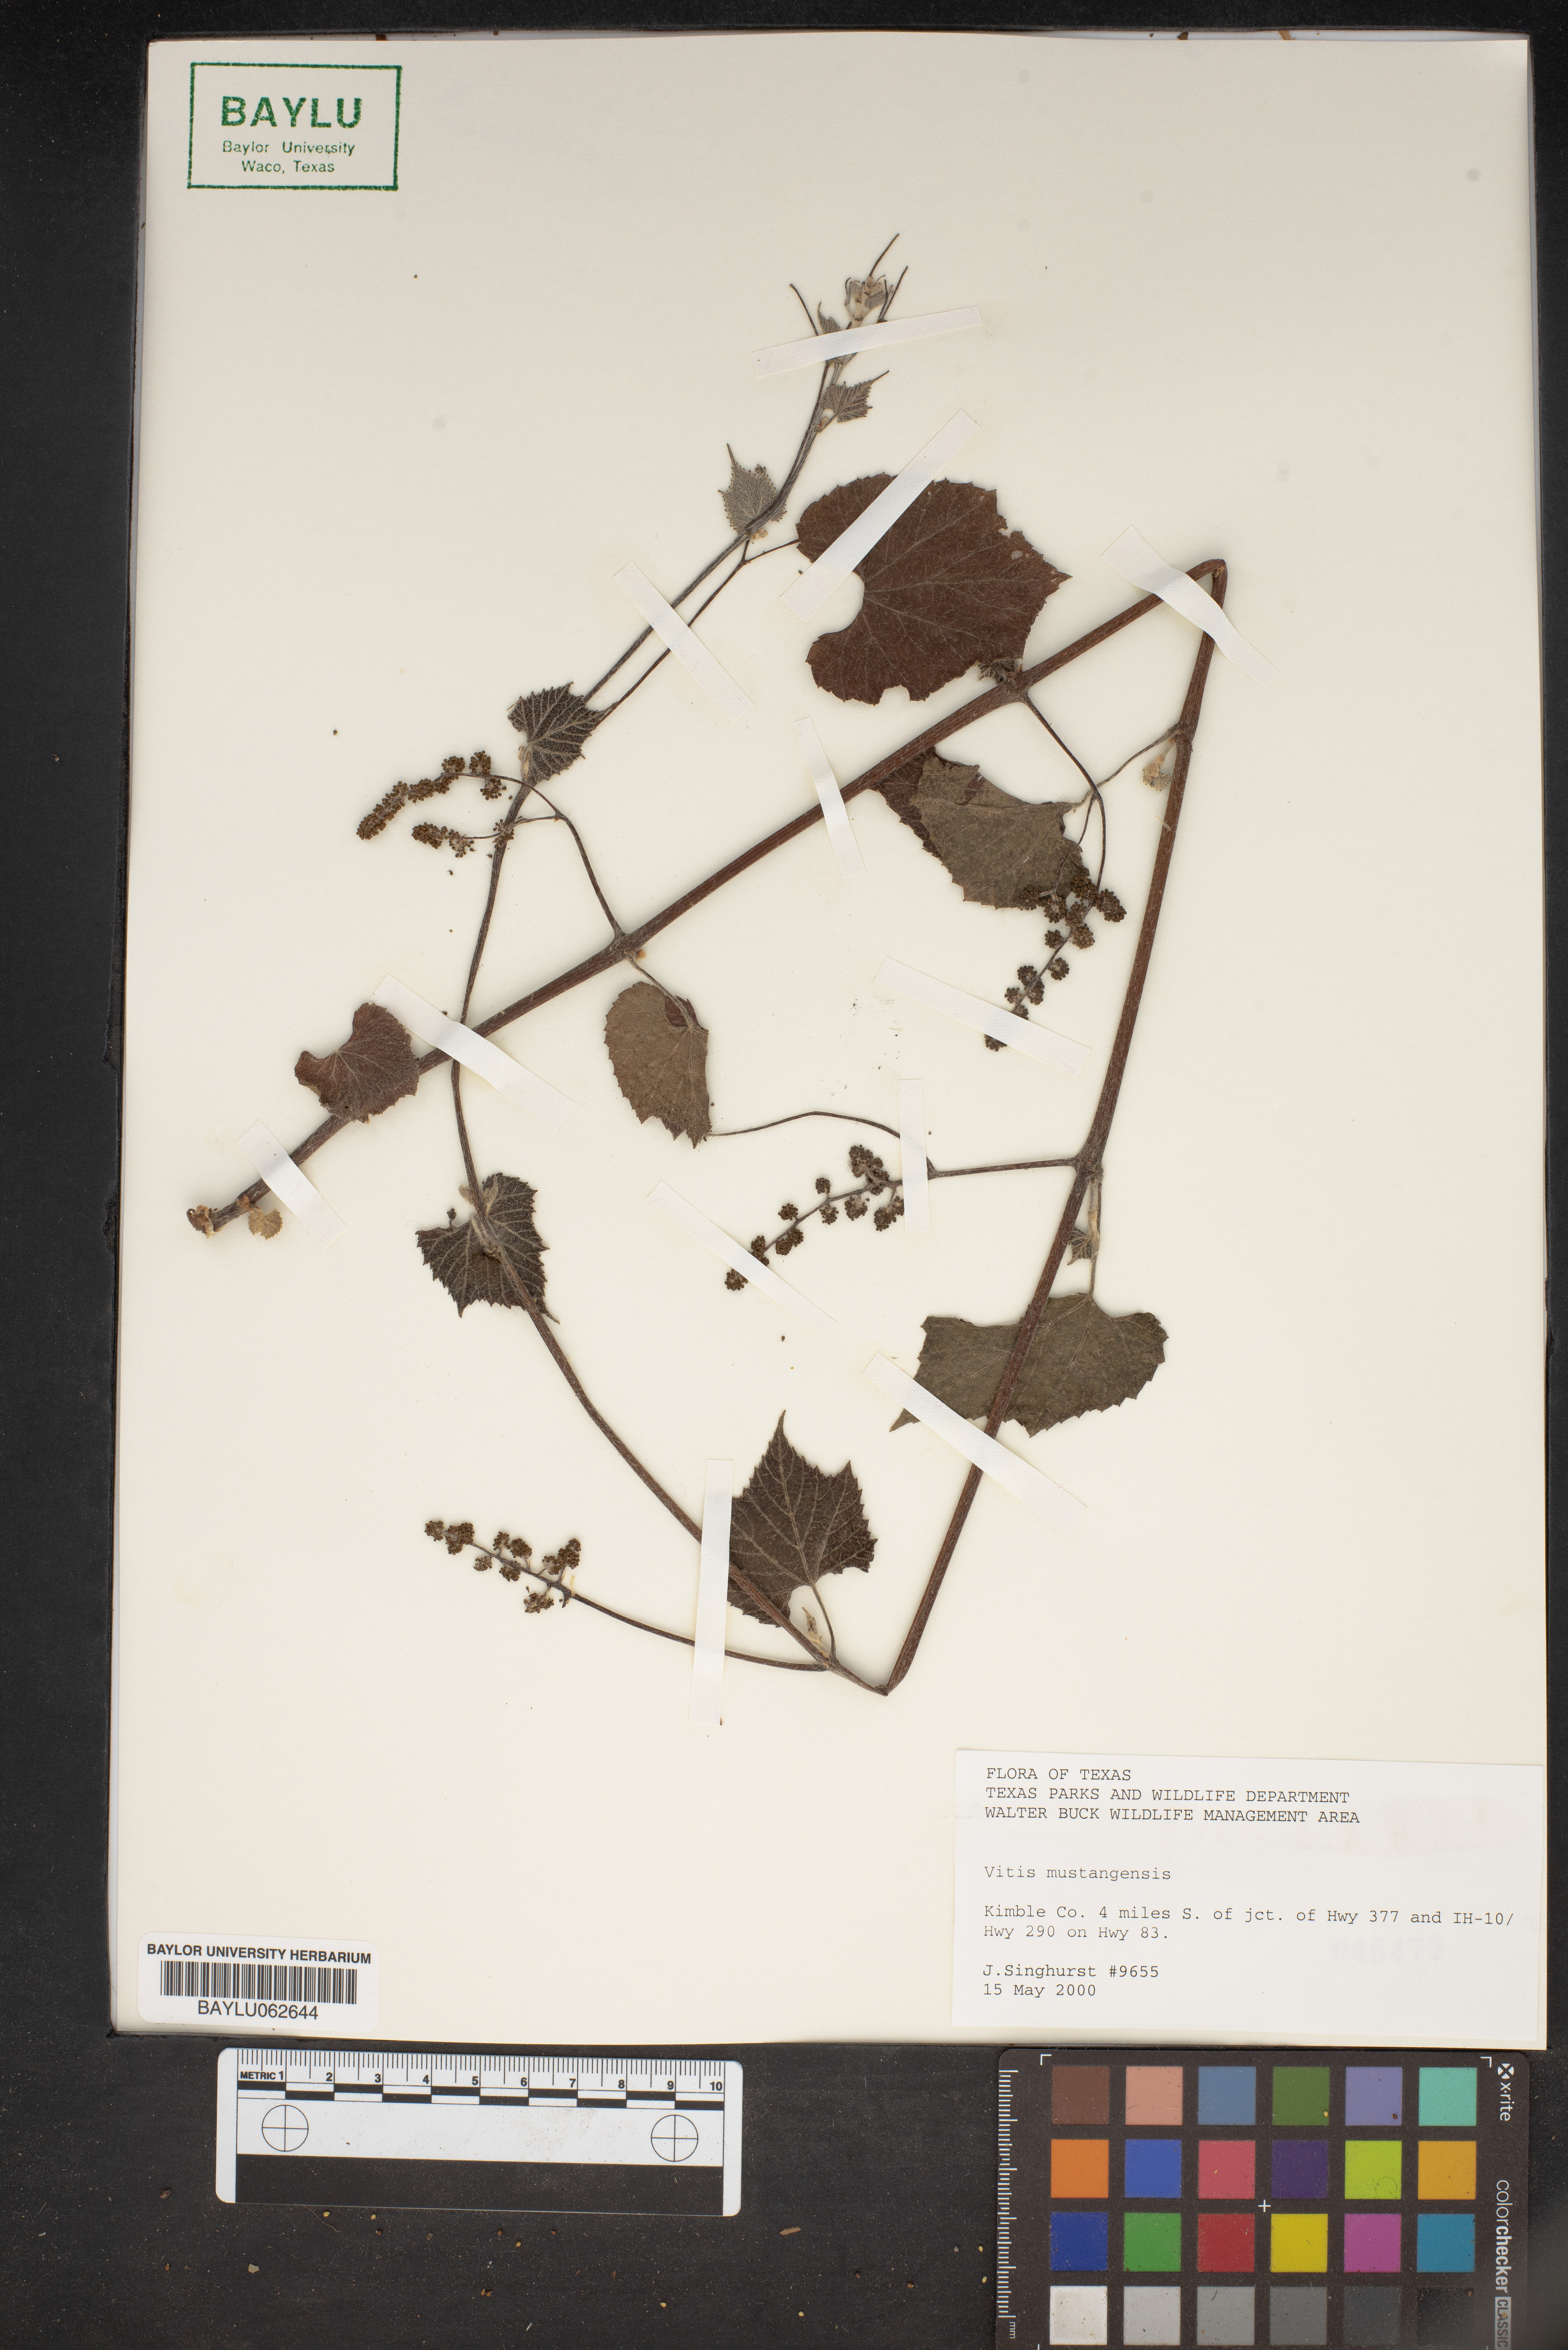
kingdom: Plantae
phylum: Tracheophyta
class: Magnoliopsida
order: Vitales
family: Vitaceae
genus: Vitis
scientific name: Vitis mustangensis
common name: Mustang grape
